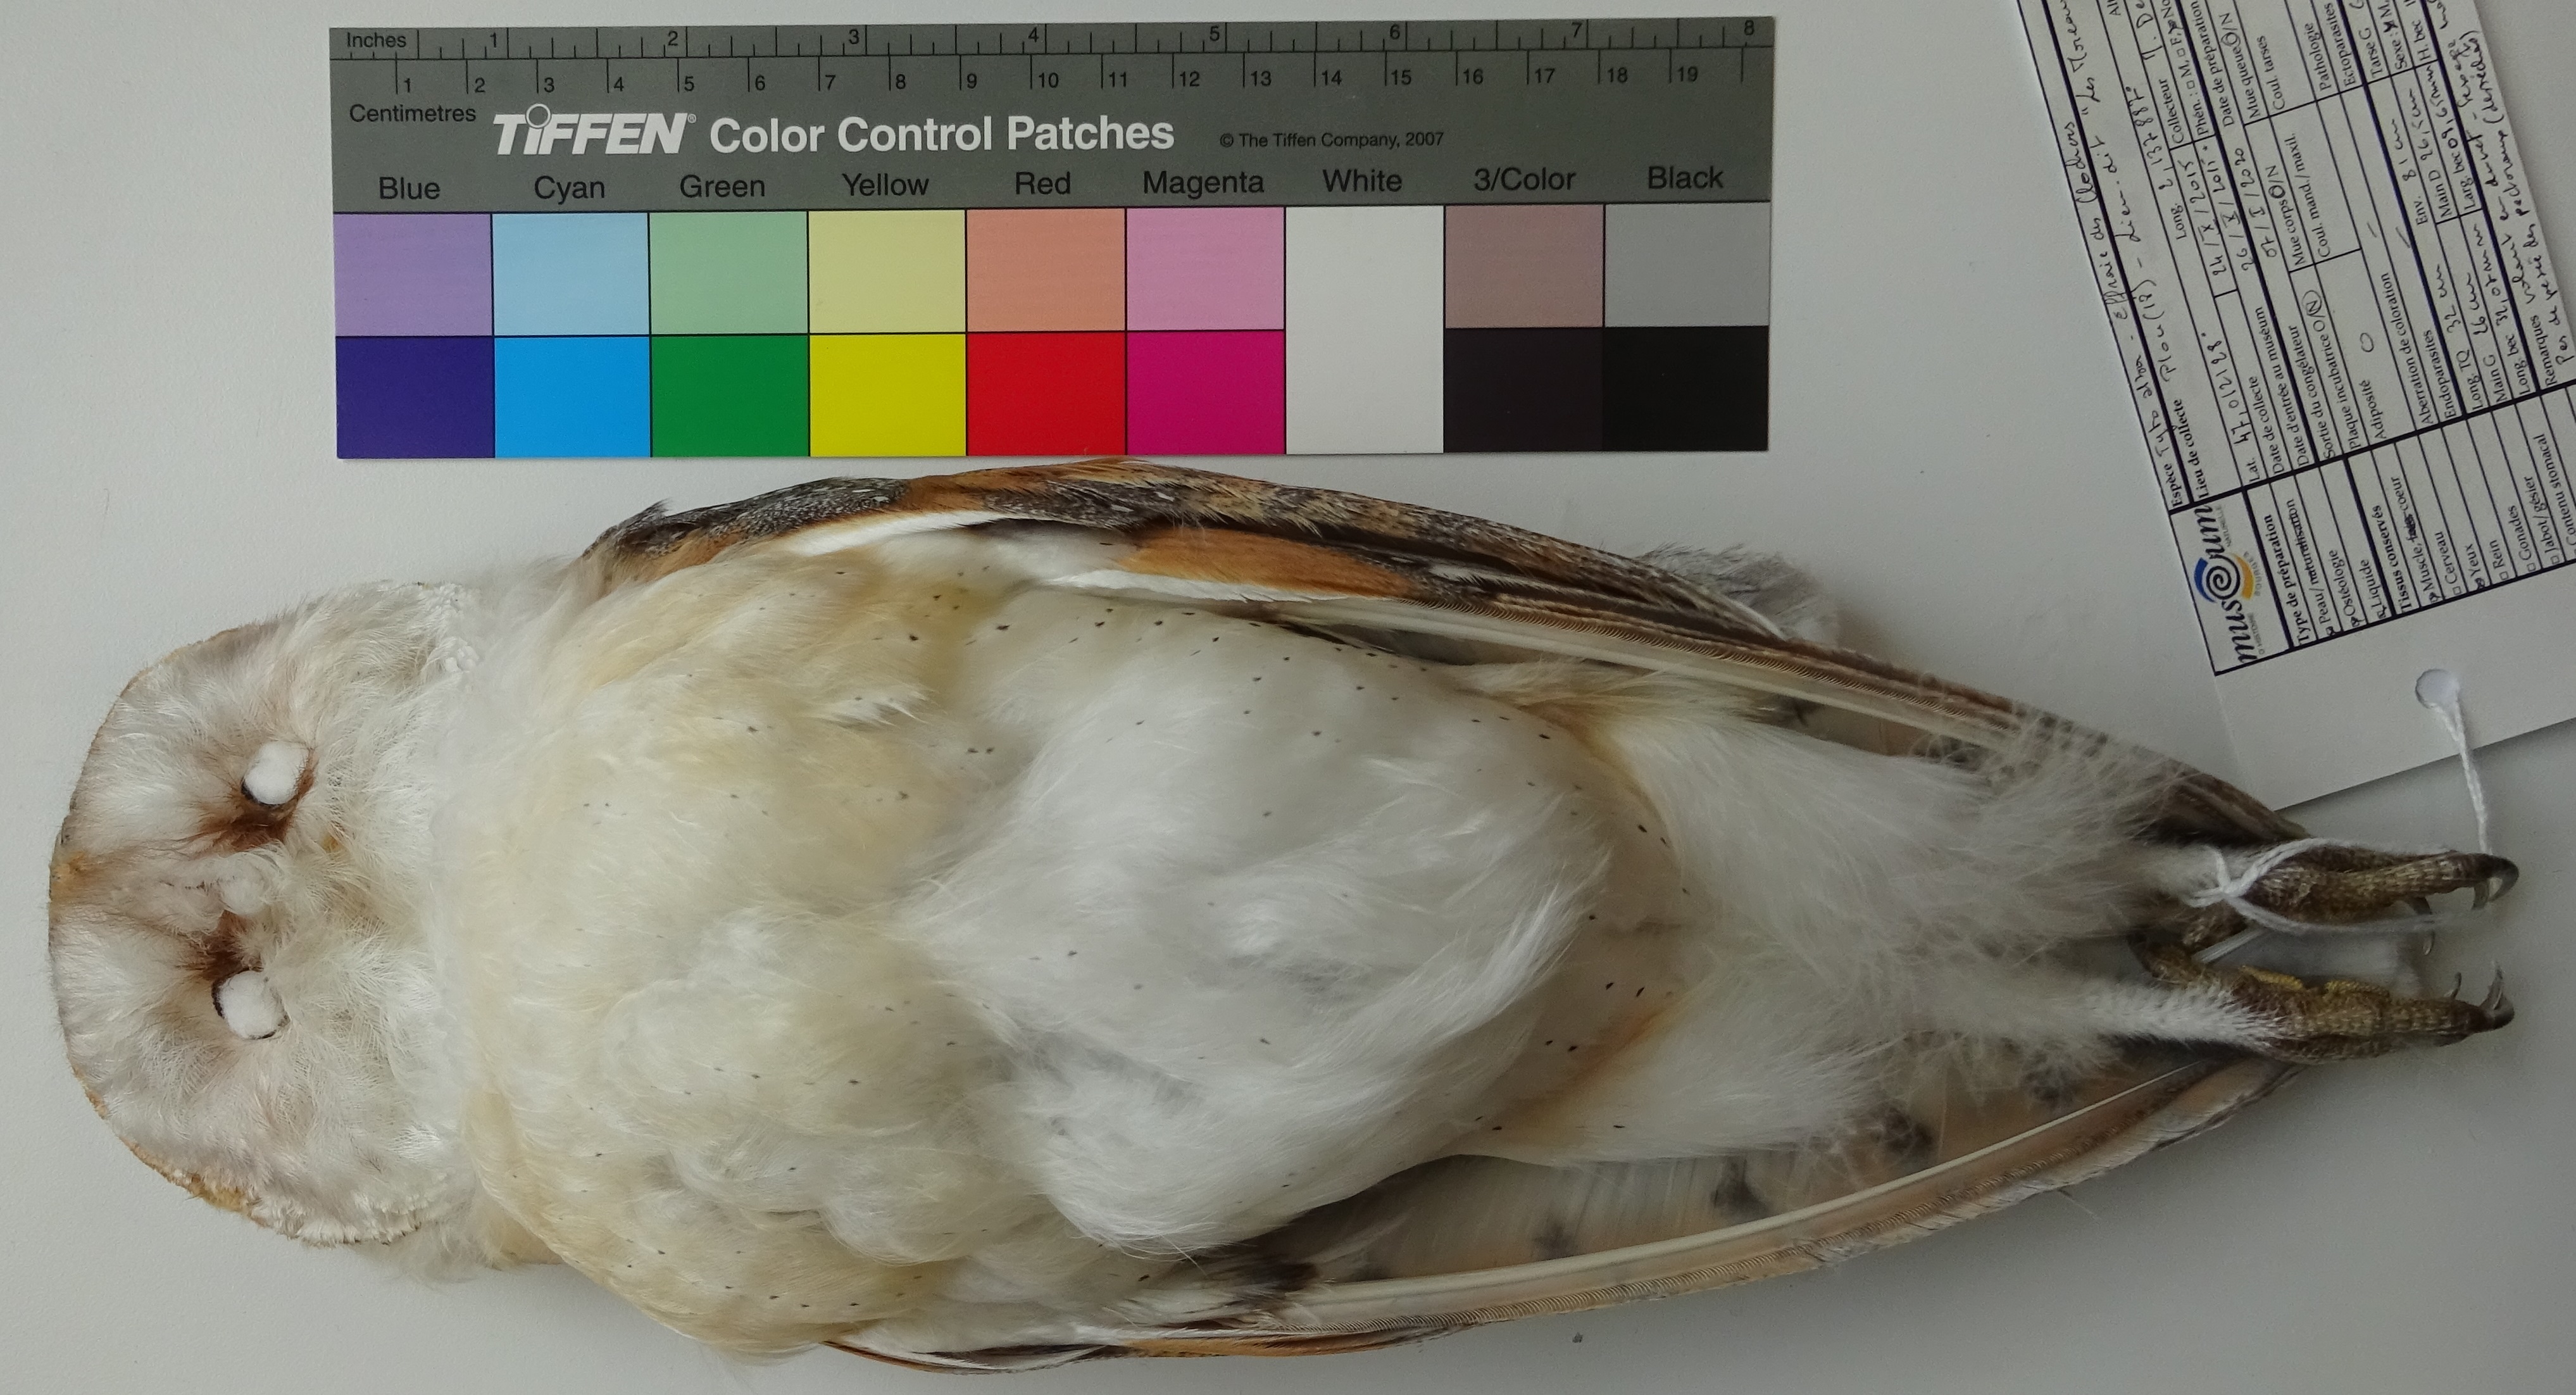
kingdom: Animalia
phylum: Chordata
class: Aves
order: Strigiformes
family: Tytonidae
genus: Tyto
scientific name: Tyto alba
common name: Barn owl
